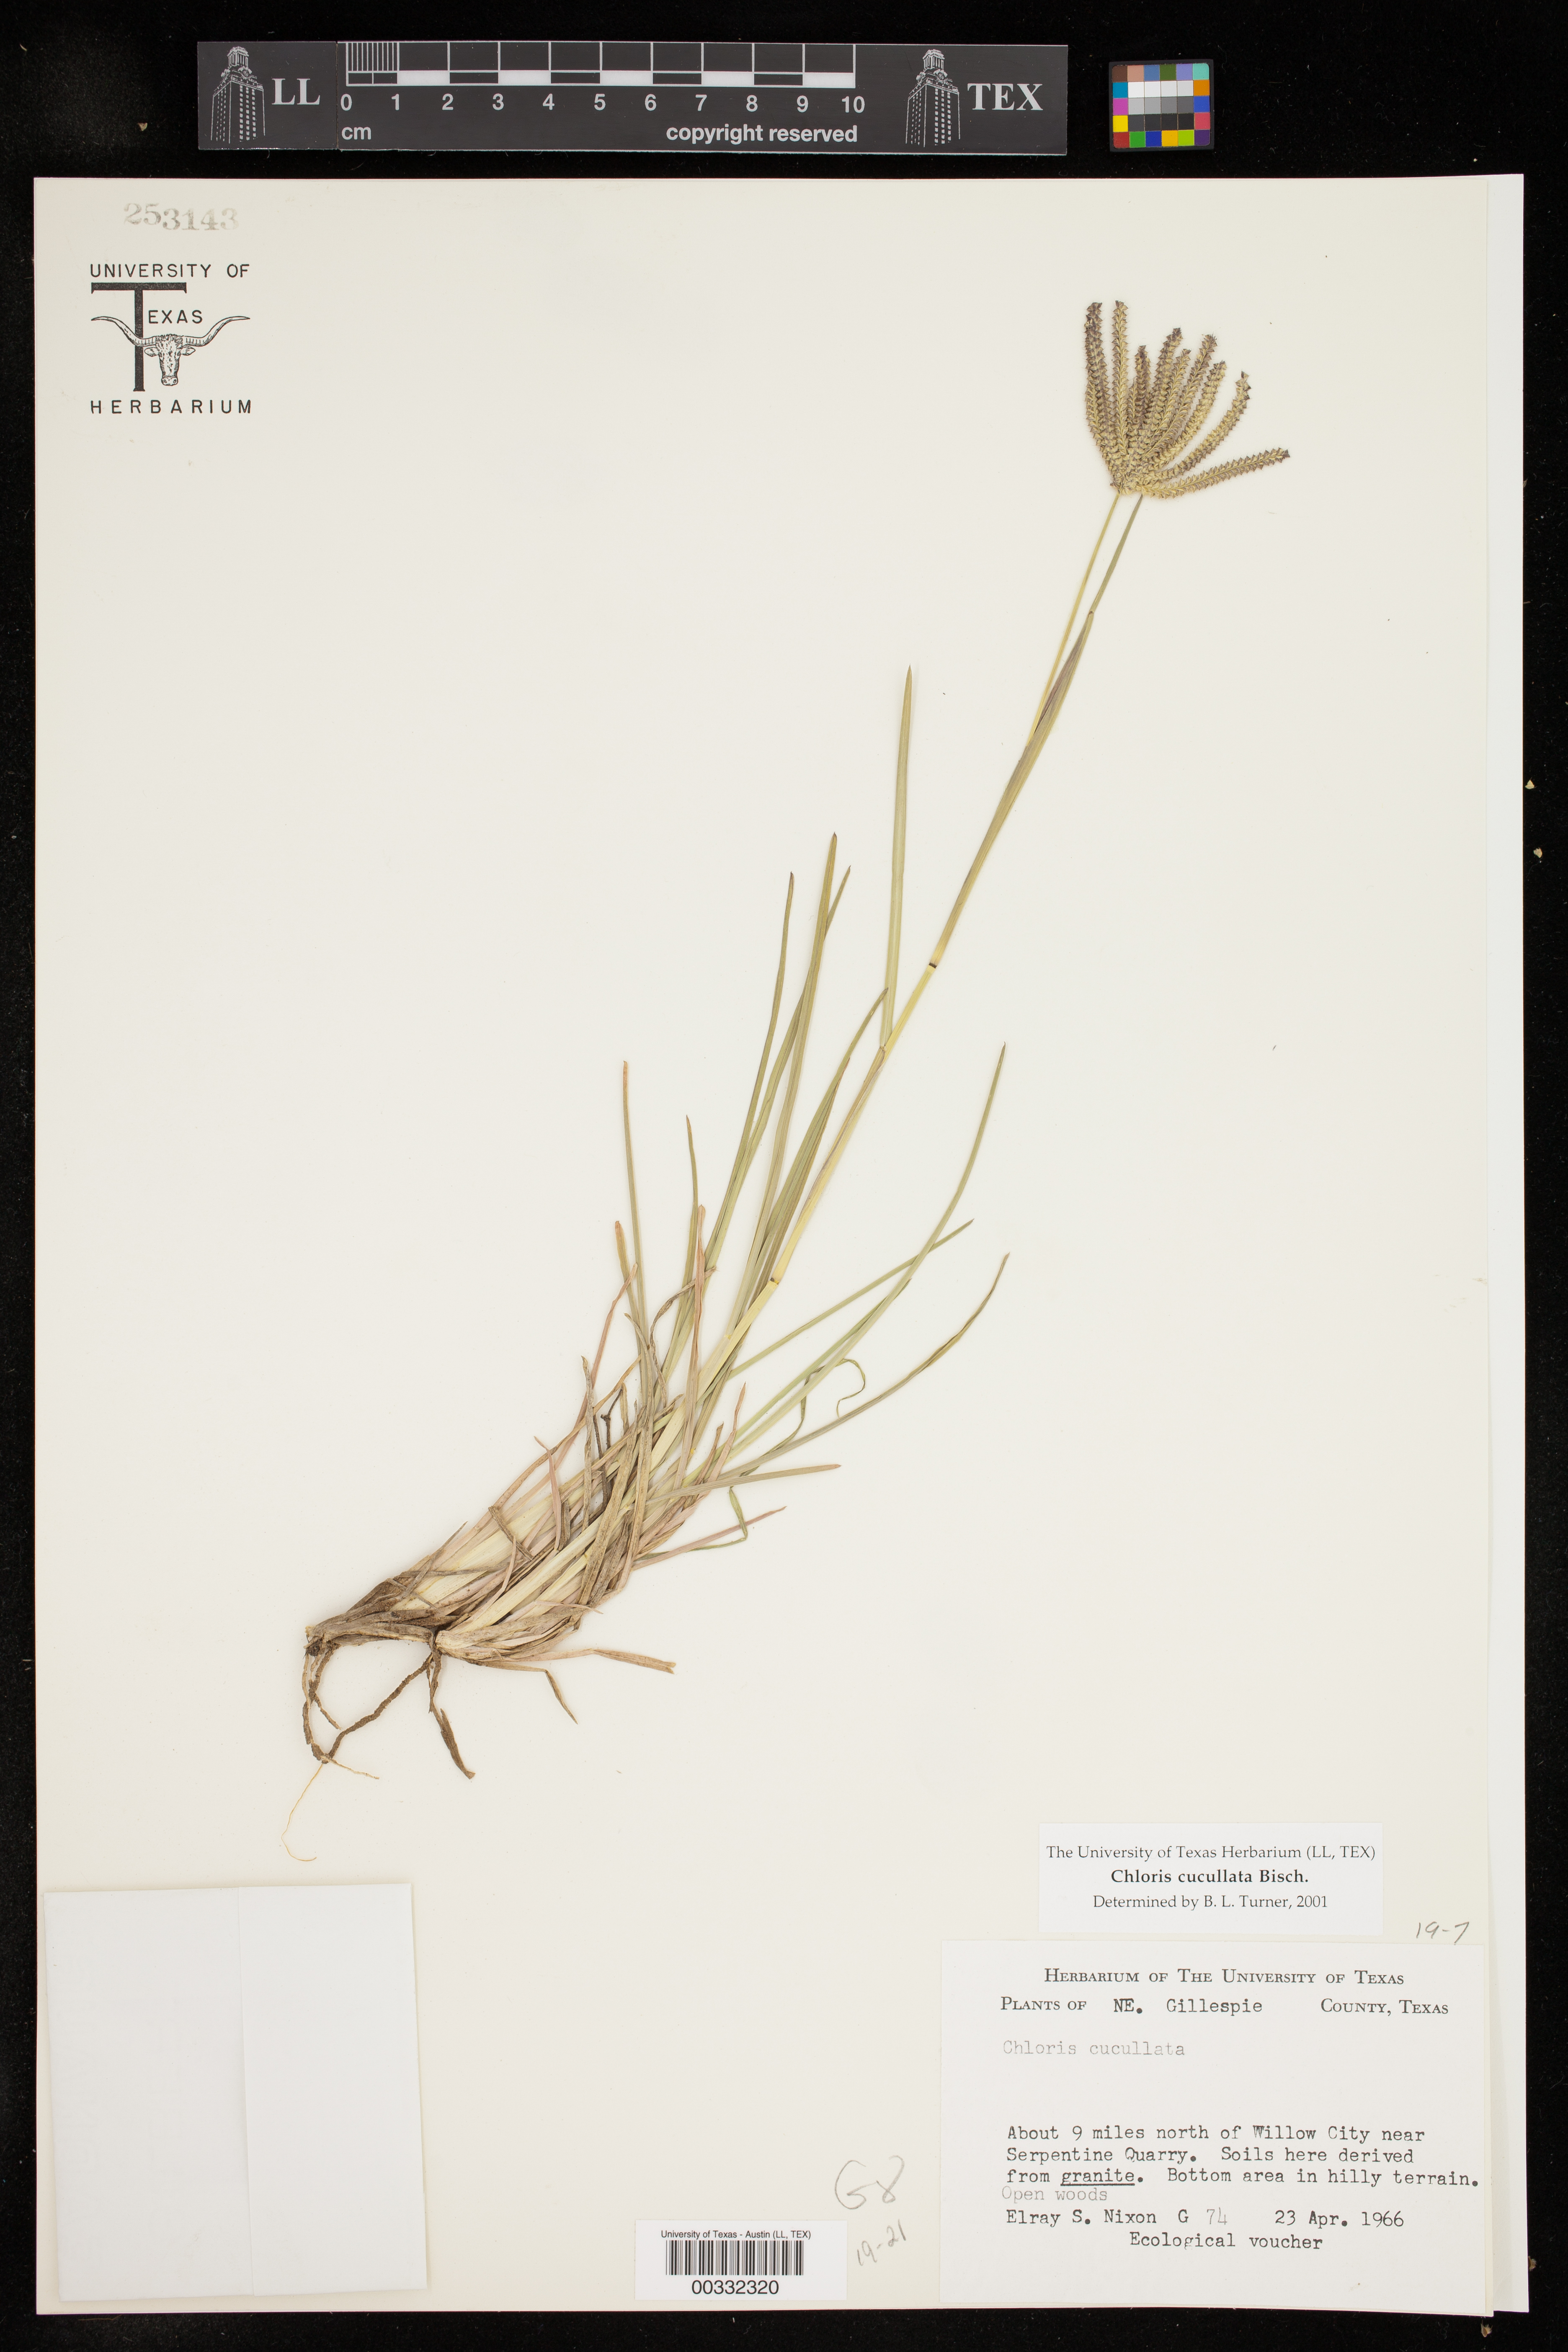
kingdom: Plantae
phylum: Tracheophyta
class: Liliopsida
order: Poales
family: Poaceae
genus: Chloris
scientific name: Chloris cucullata
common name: Hooded windmill grass
